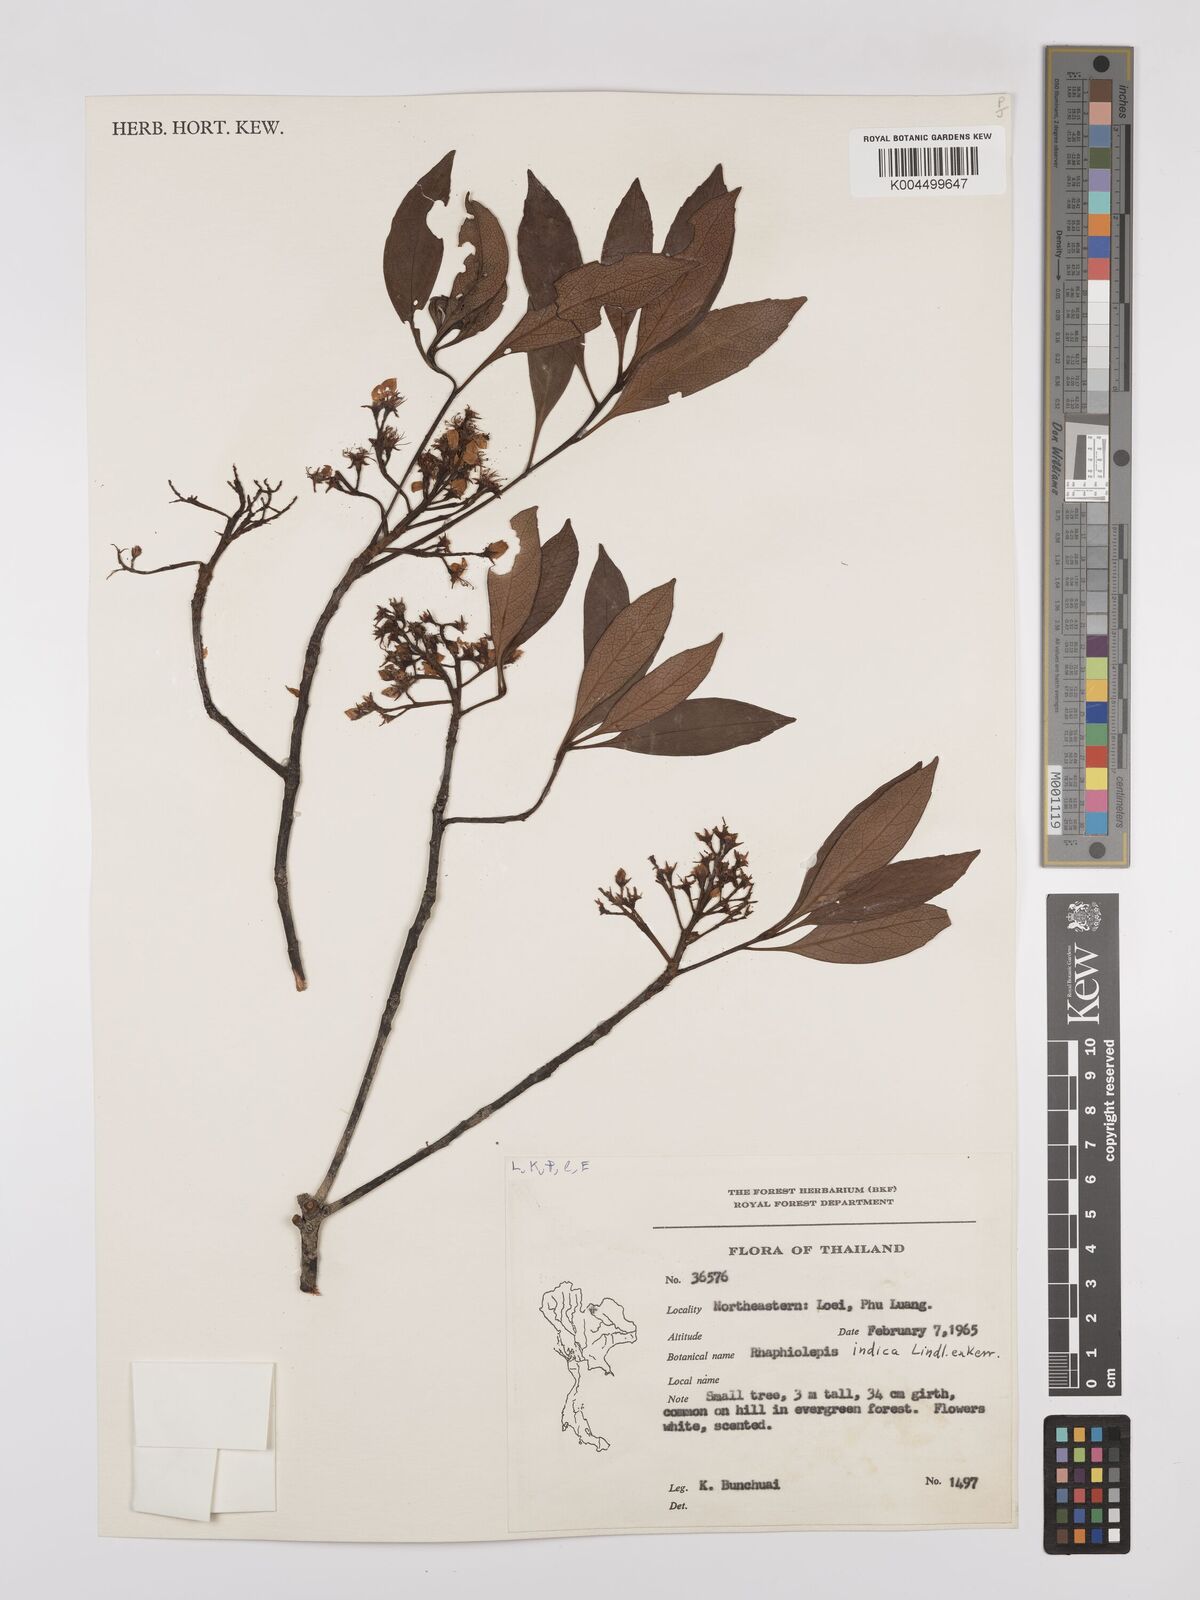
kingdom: Plantae
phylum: Tracheophyta
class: Magnoliopsida
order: Rosales
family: Rosaceae
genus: Rhaphiolepis
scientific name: Rhaphiolepis indica
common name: India-hawthorn
